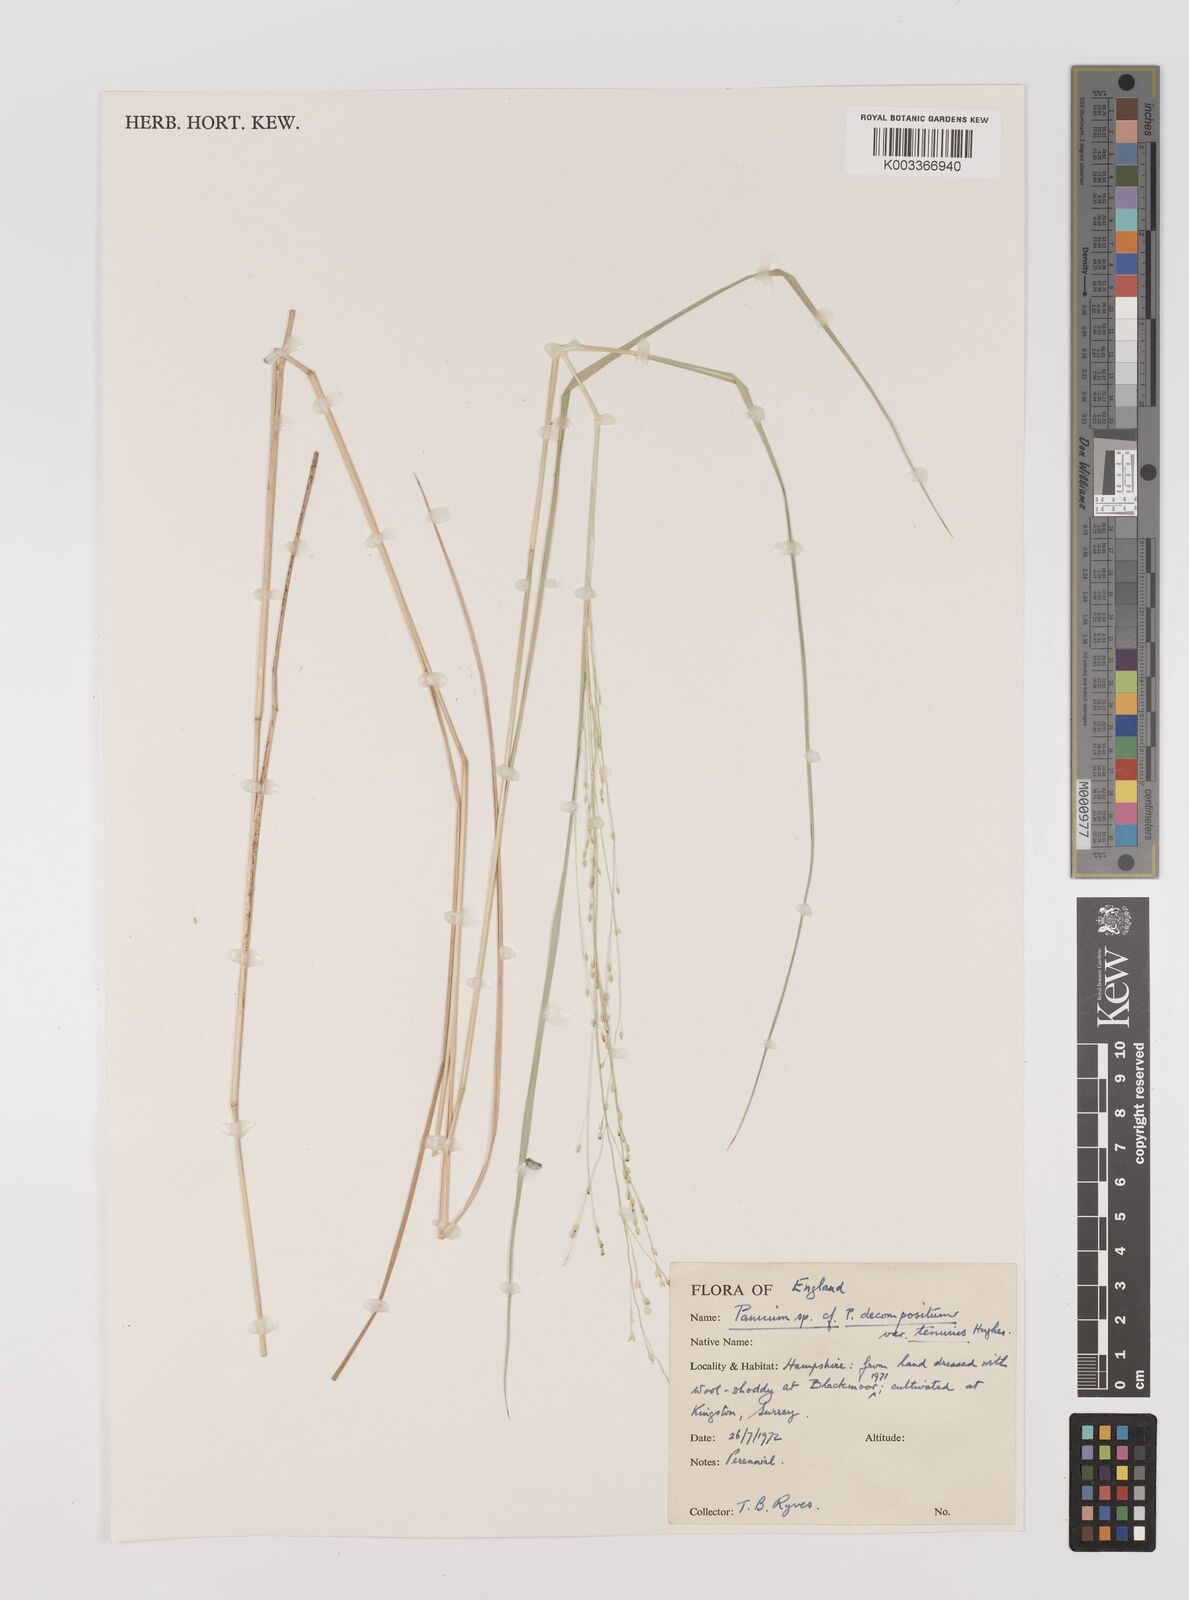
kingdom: Plantae
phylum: Tracheophyta
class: Liliopsida
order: Poales
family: Poaceae
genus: Panicum
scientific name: Panicum decompositum
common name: Australian millet
